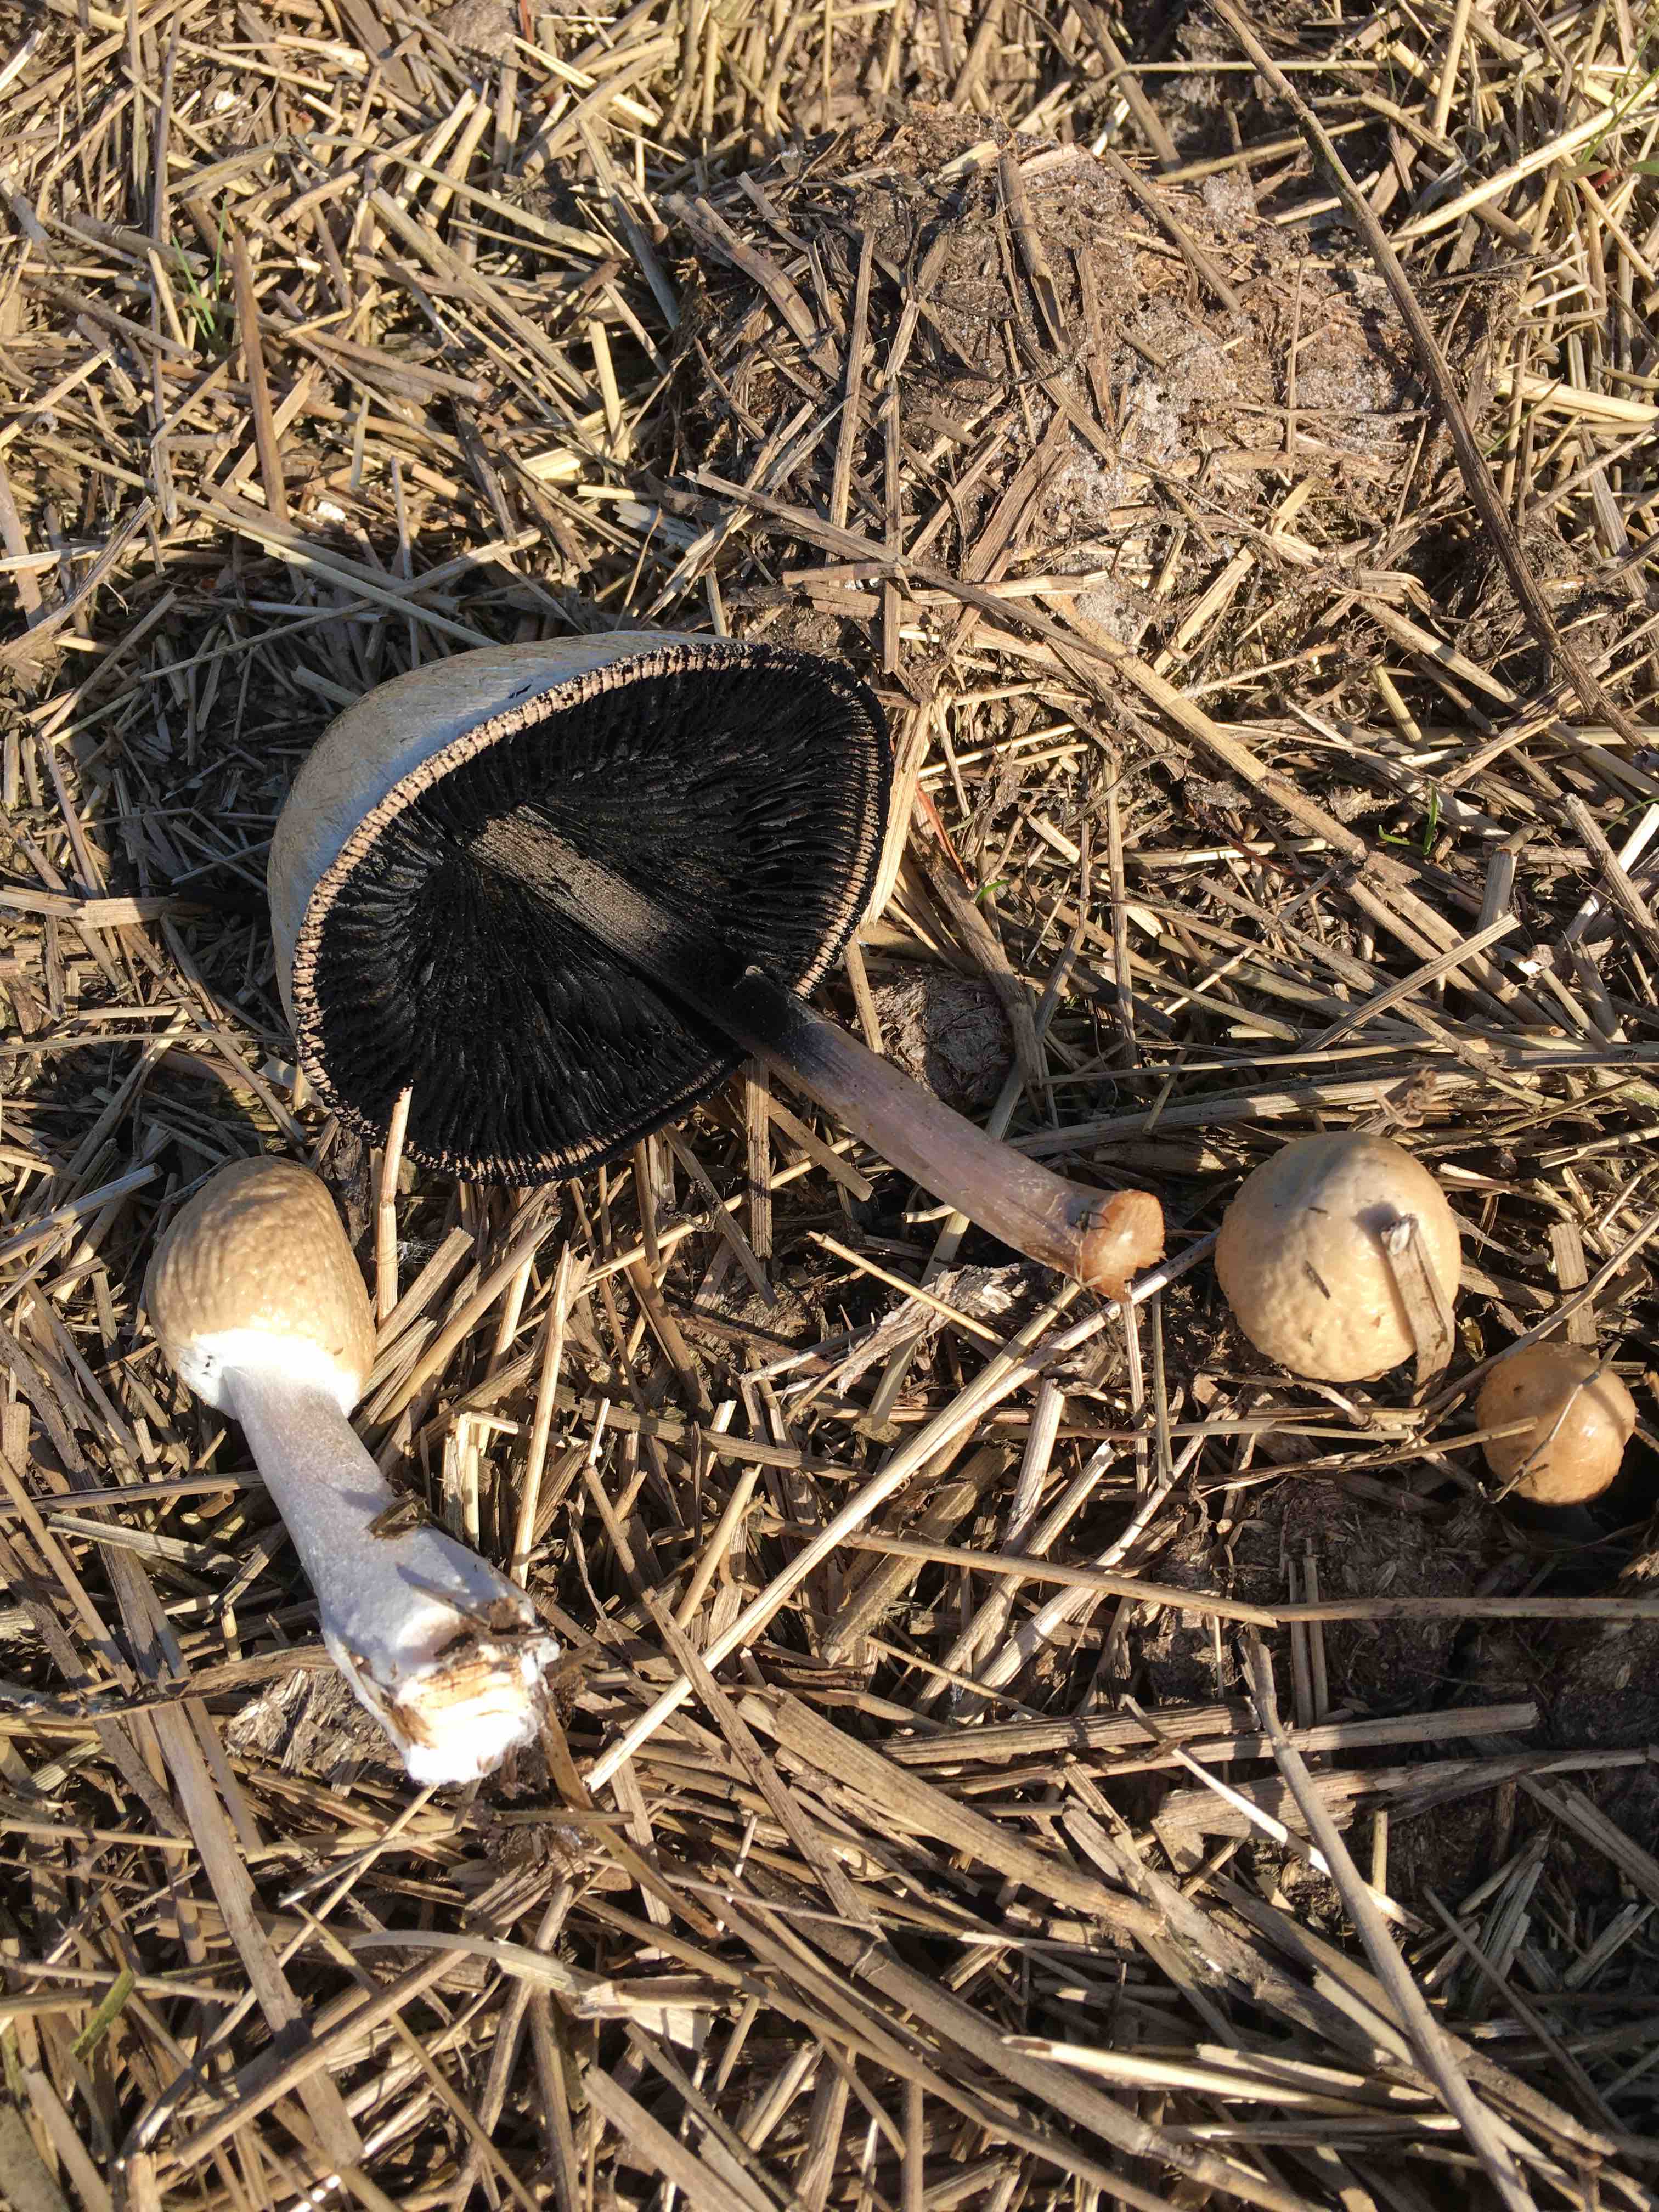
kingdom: Fungi
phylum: Basidiomycota
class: Agaricomycetes
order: Agaricales
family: Bolbitiaceae
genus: Panaeolus
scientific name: Panaeolus semiovatus
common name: ring-glanshat
